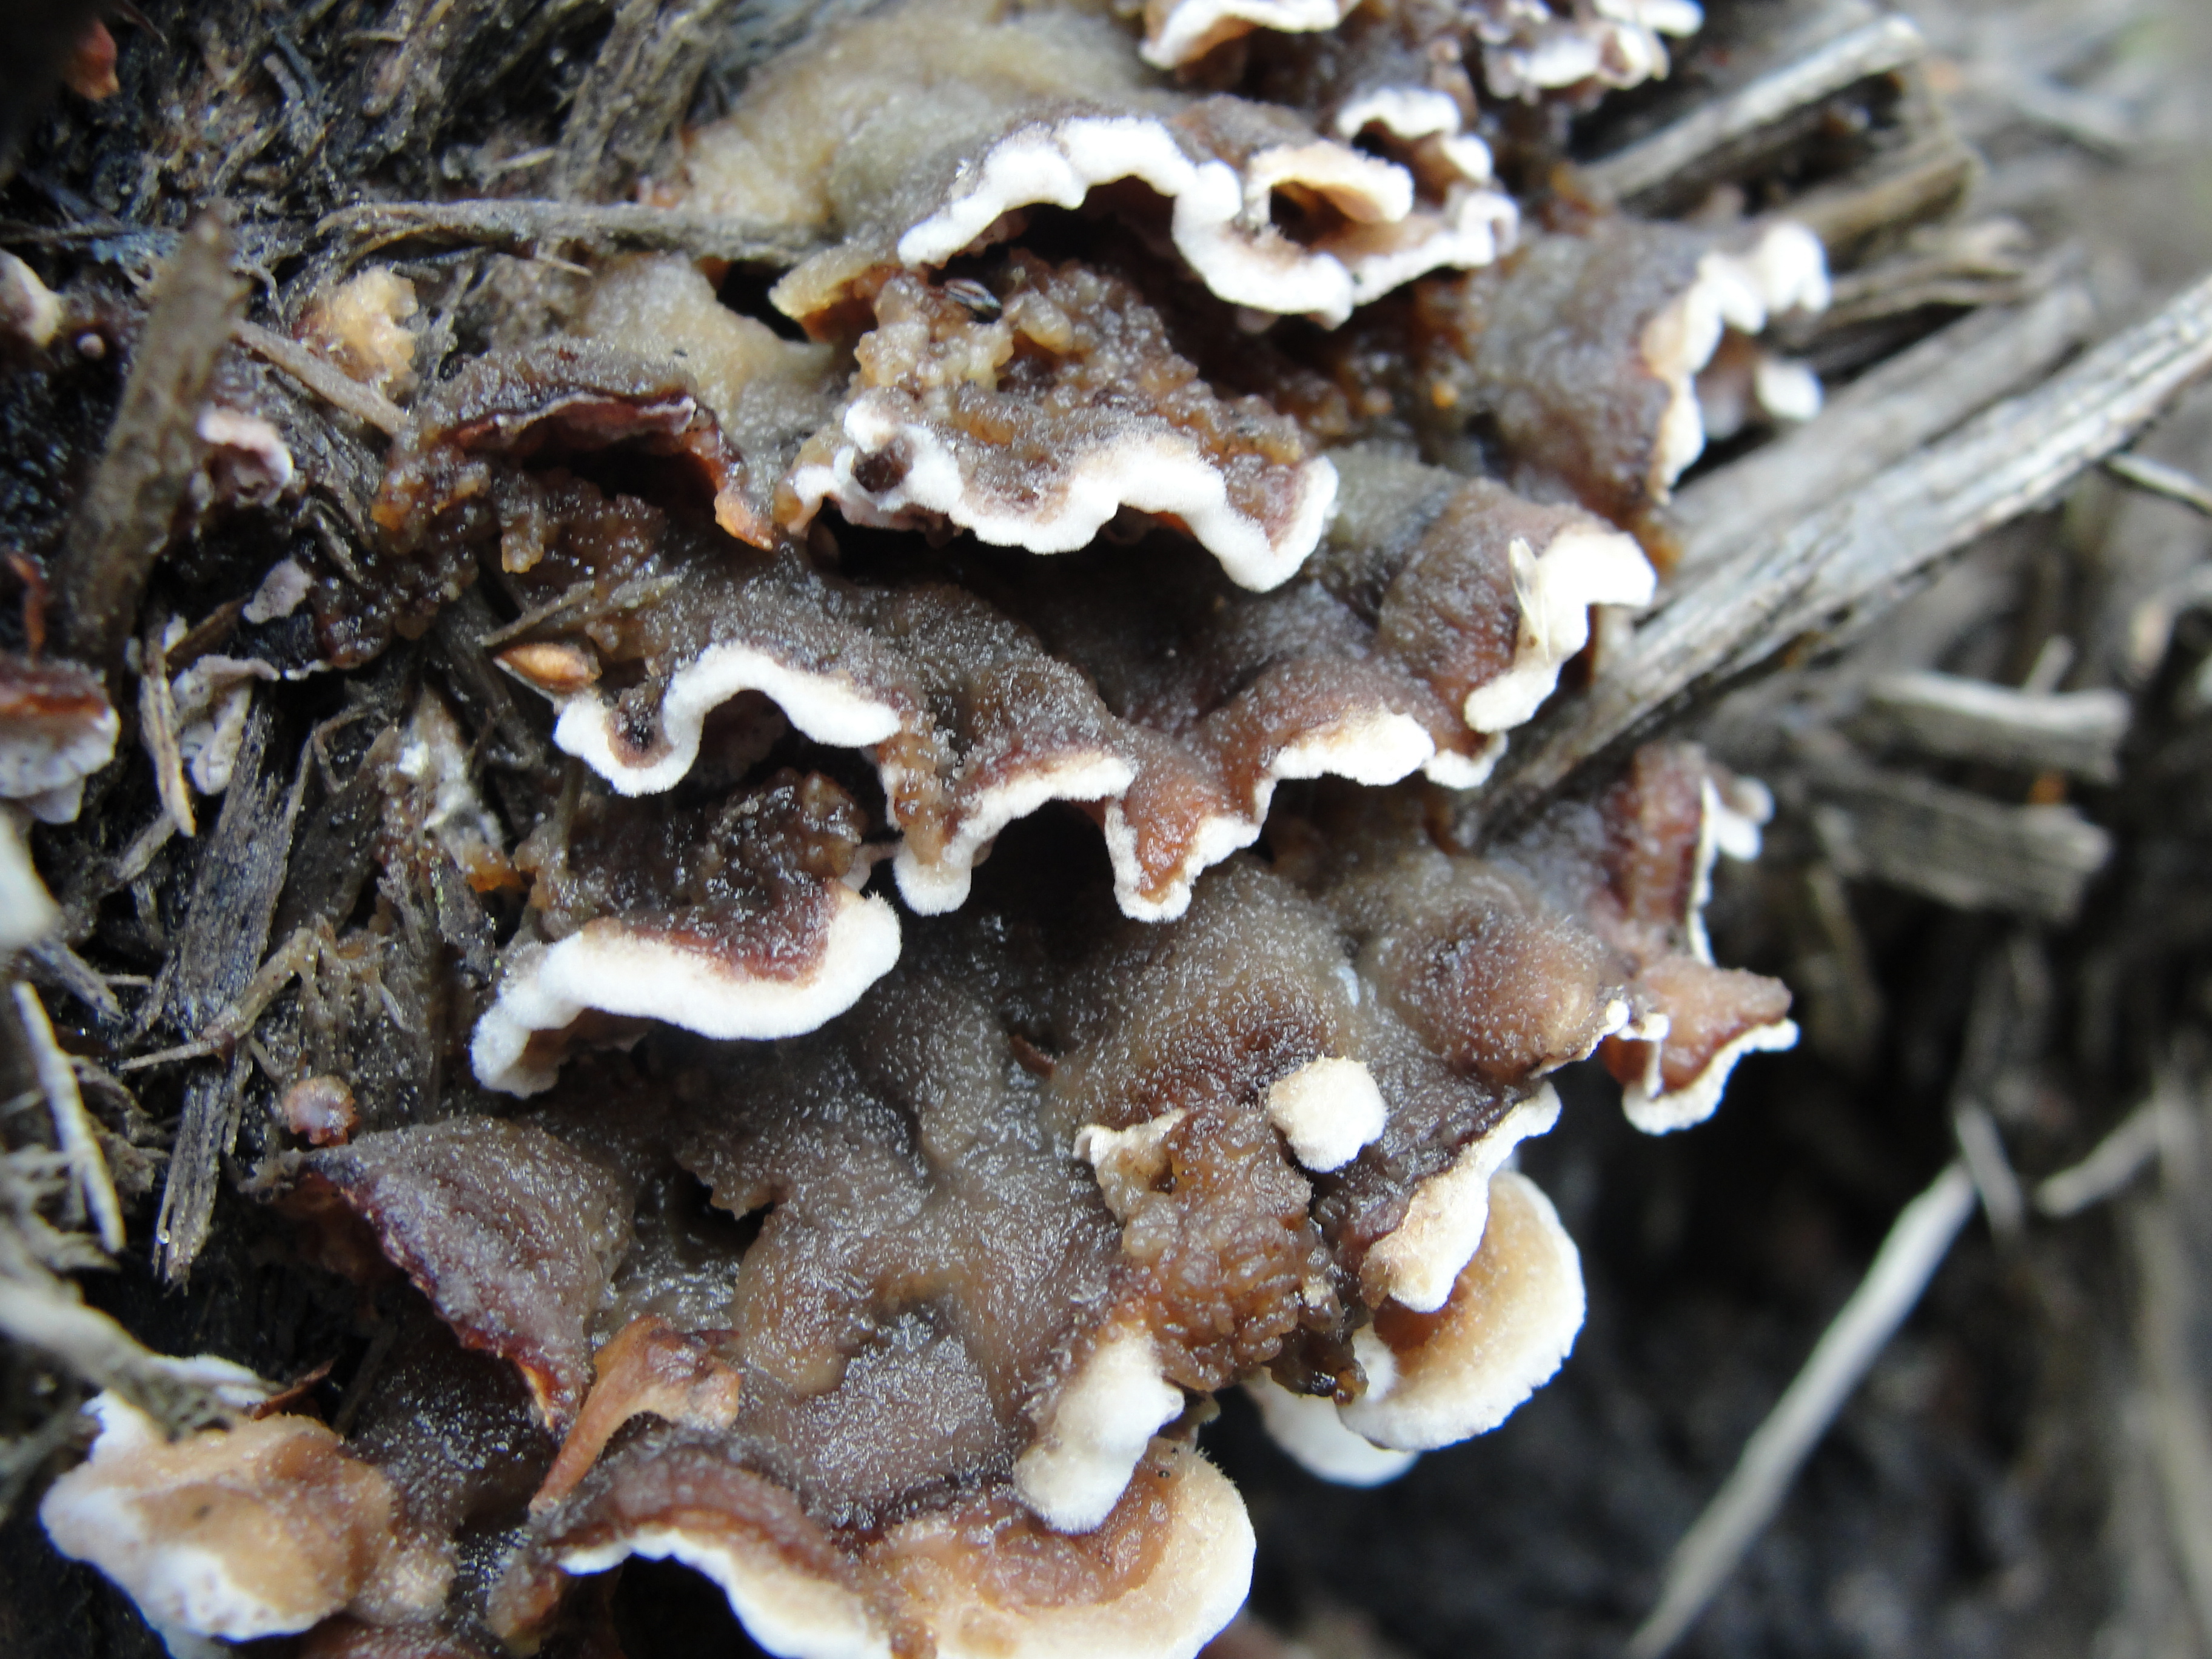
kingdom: Fungi
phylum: Basidiomycota
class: Agaricomycetes
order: Russulales
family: Bondarzewiaceae
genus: Heterobasidion
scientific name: Heterobasidion parviporum
